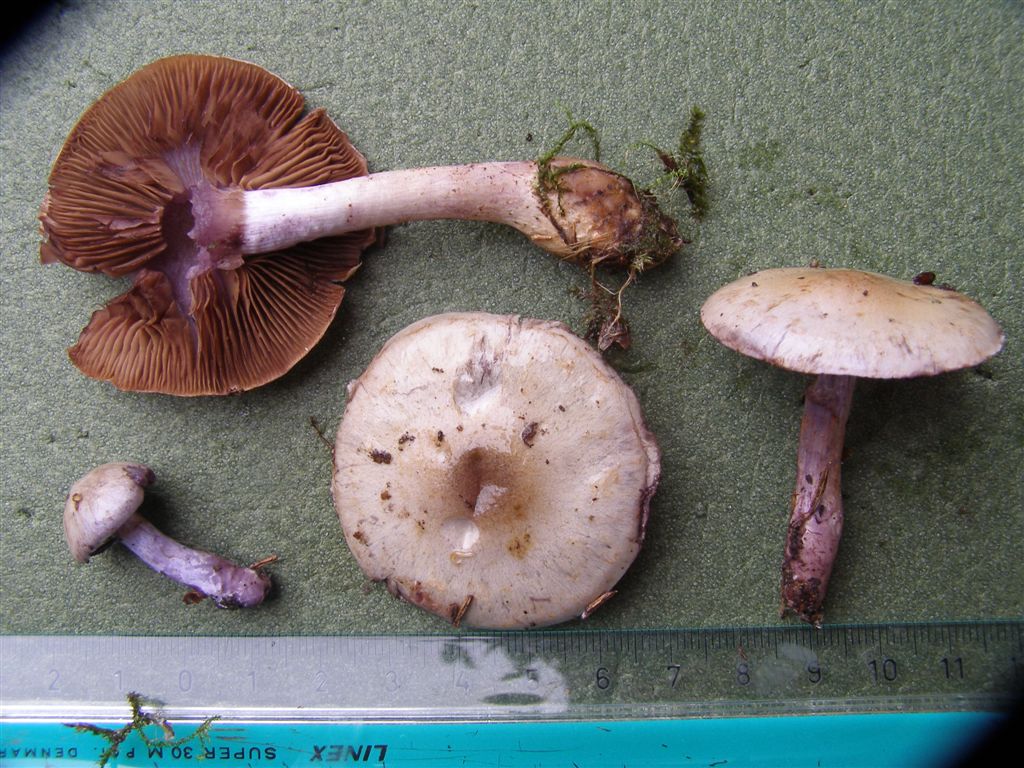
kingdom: Fungi
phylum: Basidiomycota
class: Agaricomycetes
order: Agaricales
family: Cortinariaceae
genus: Thaxterogaster
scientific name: Thaxterogaster subporphyropus
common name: ametyst-slørhat
